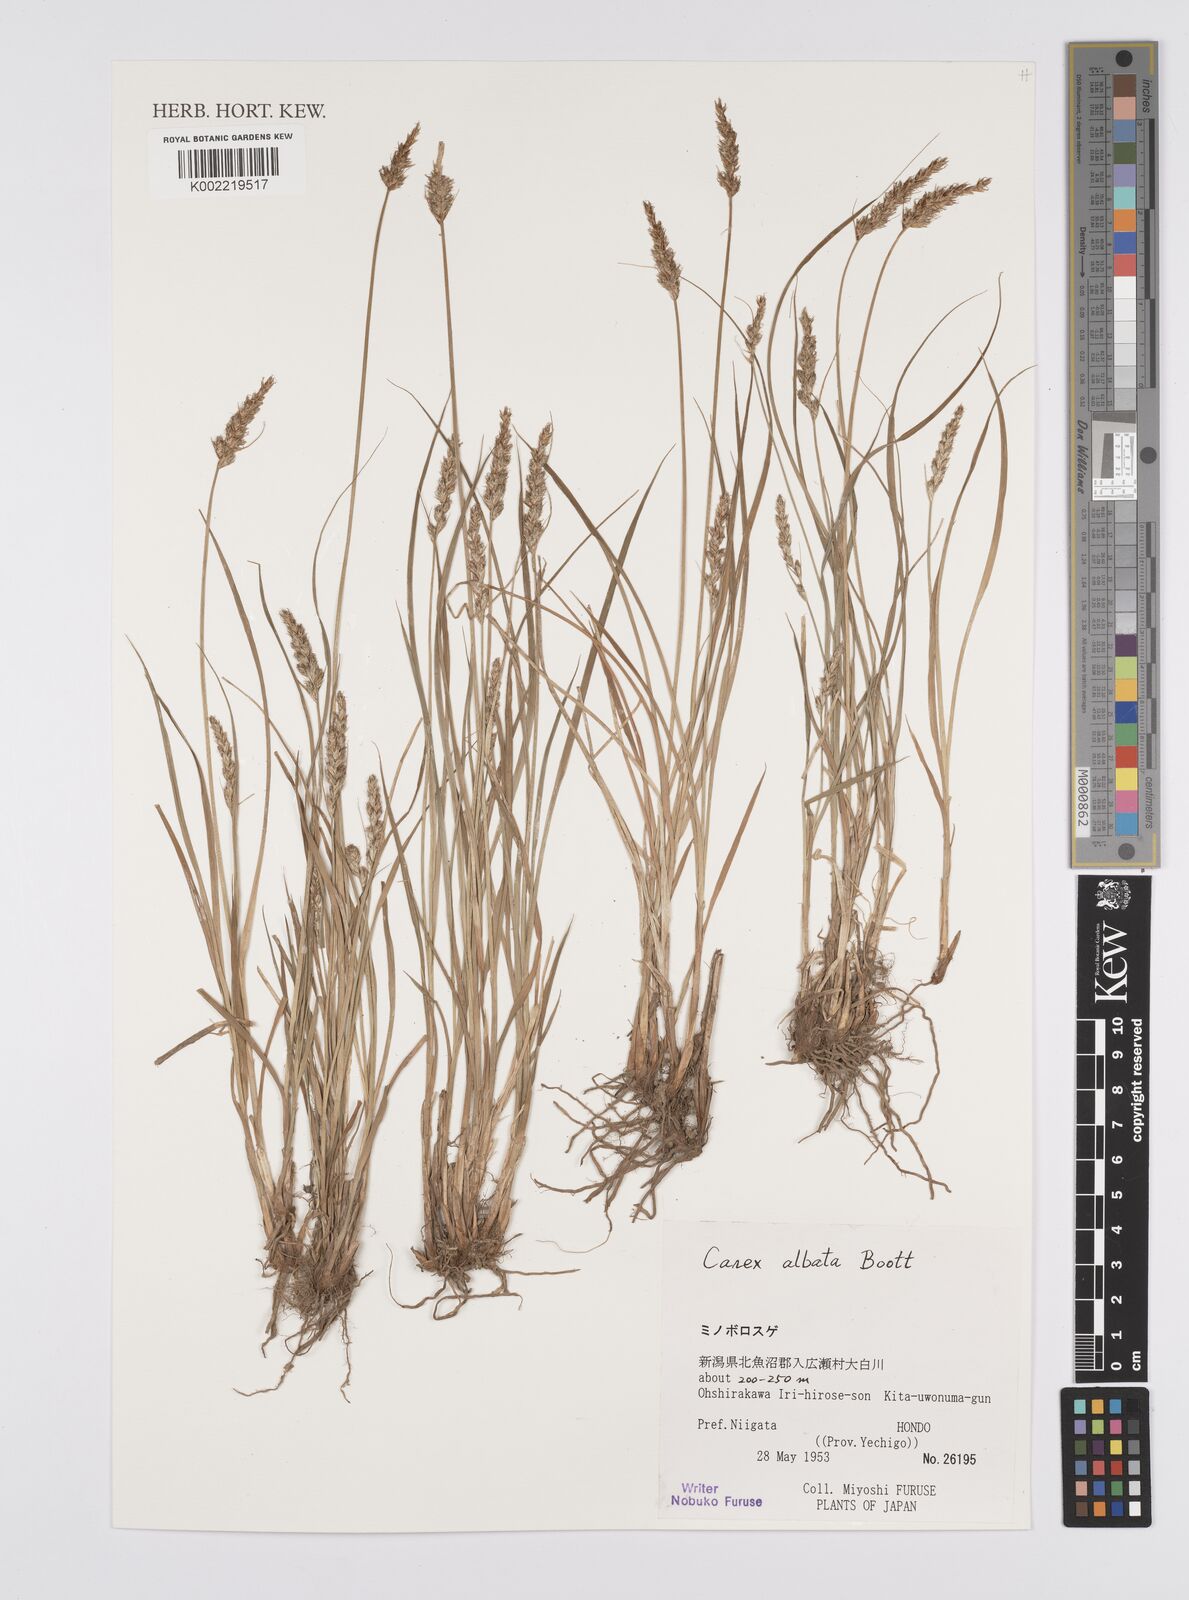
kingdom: Plantae
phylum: Tracheophyta
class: Liliopsida
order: Poales
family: Cyperaceae
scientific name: Cyperaceae
